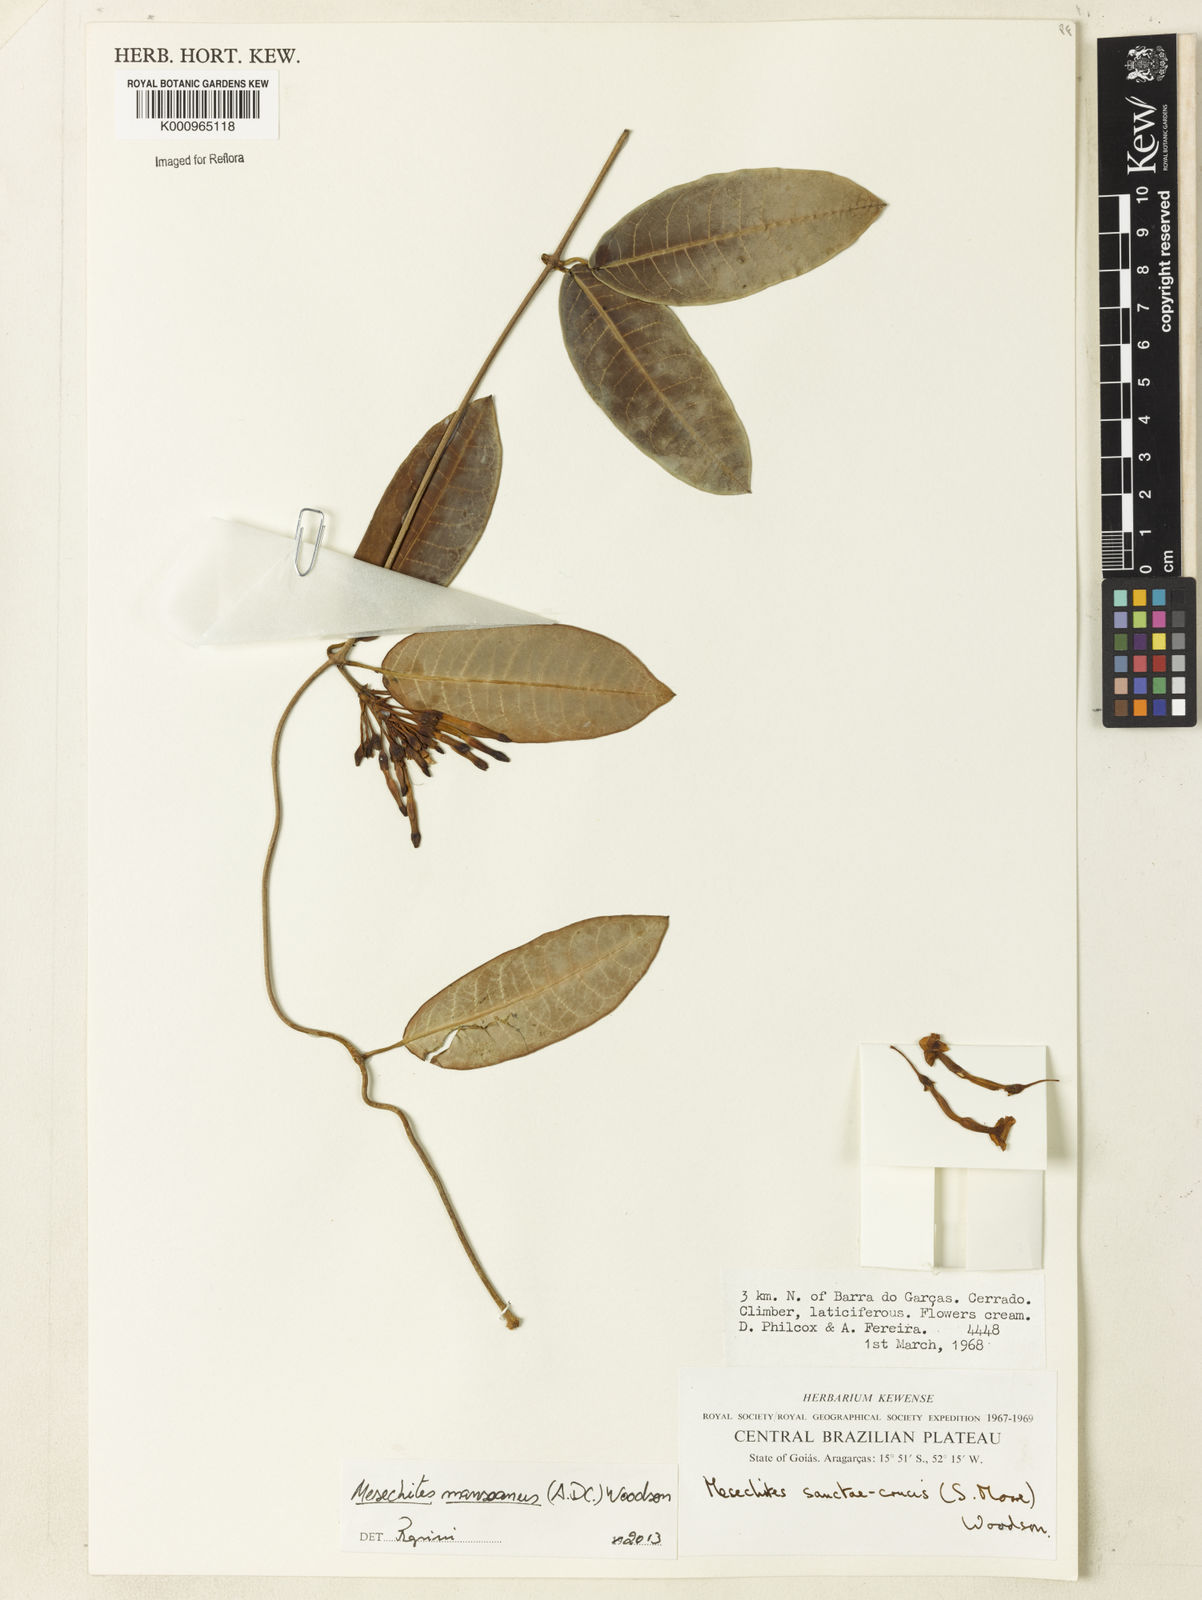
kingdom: Plantae
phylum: Tracheophyta
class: Magnoliopsida
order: Gentianales
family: Apocynaceae
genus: Mesechites
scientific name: Mesechites
